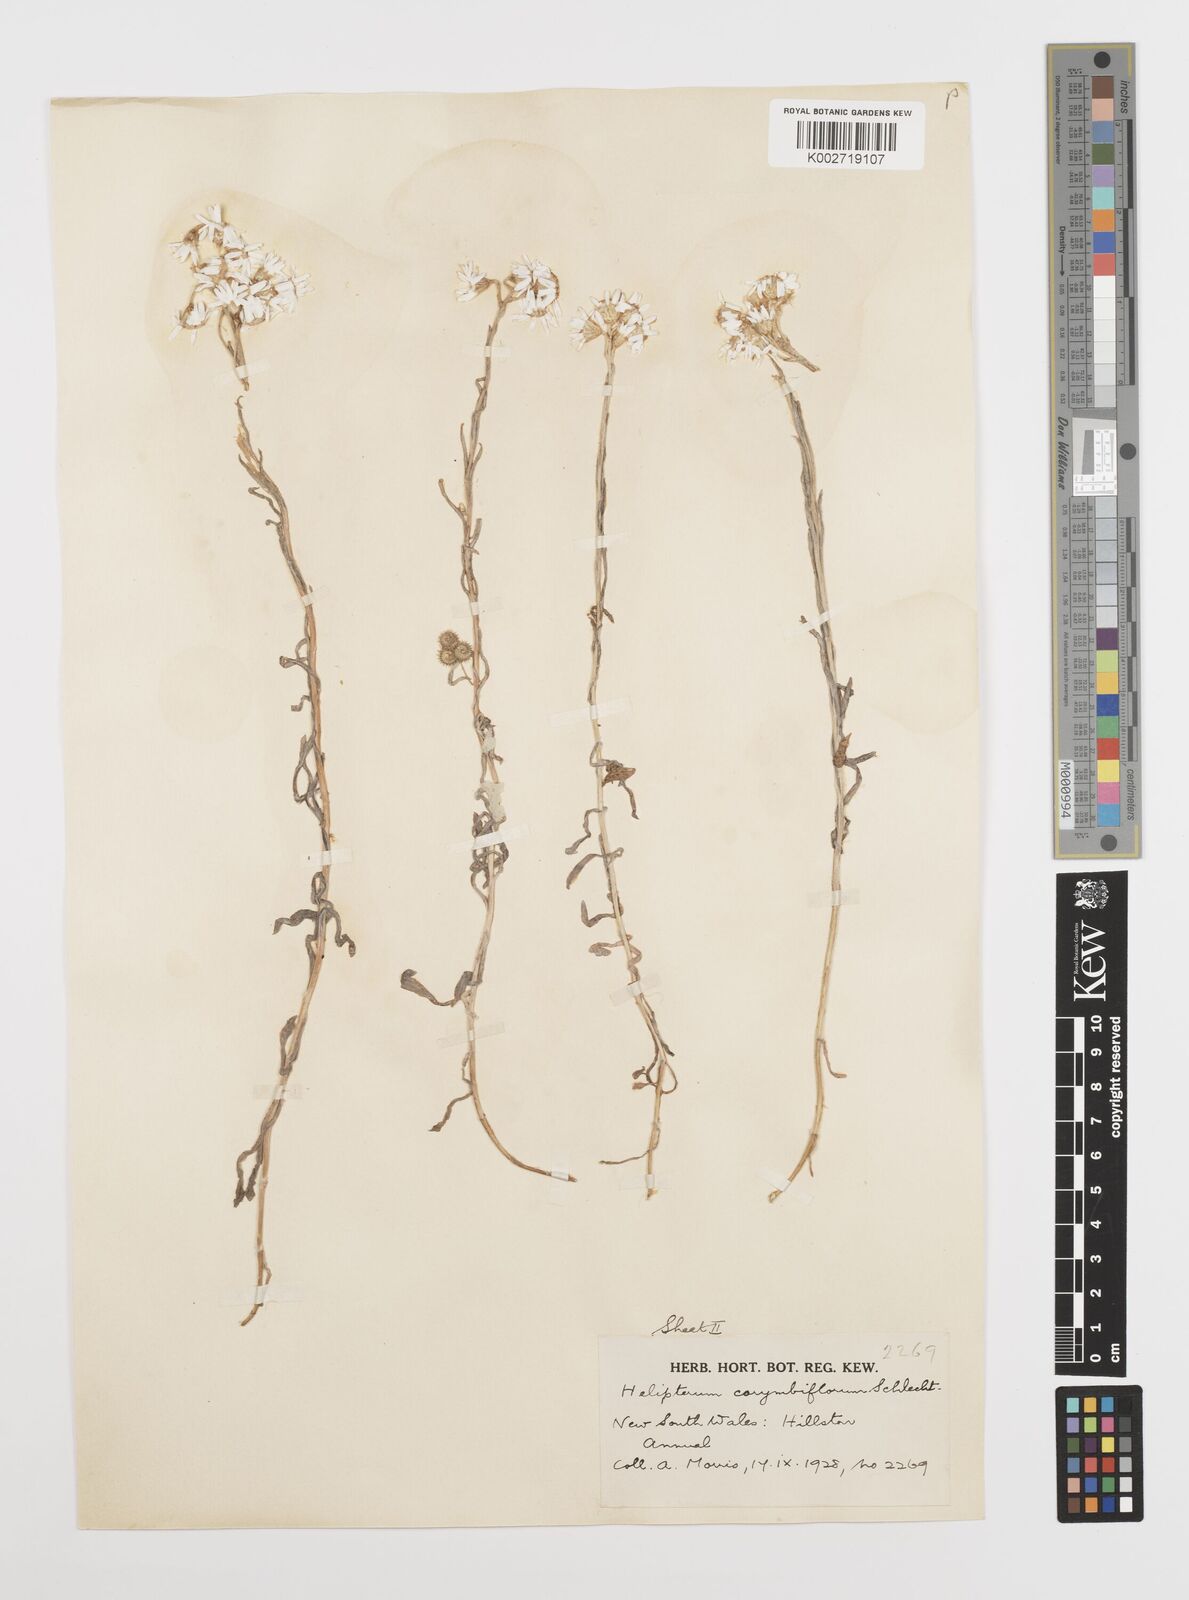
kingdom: Plantae
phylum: Tracheophyta
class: Magnoliopsida
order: Asterales
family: Asteraceae
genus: Rhodanthe
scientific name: Rhodanthe corymbiflora
